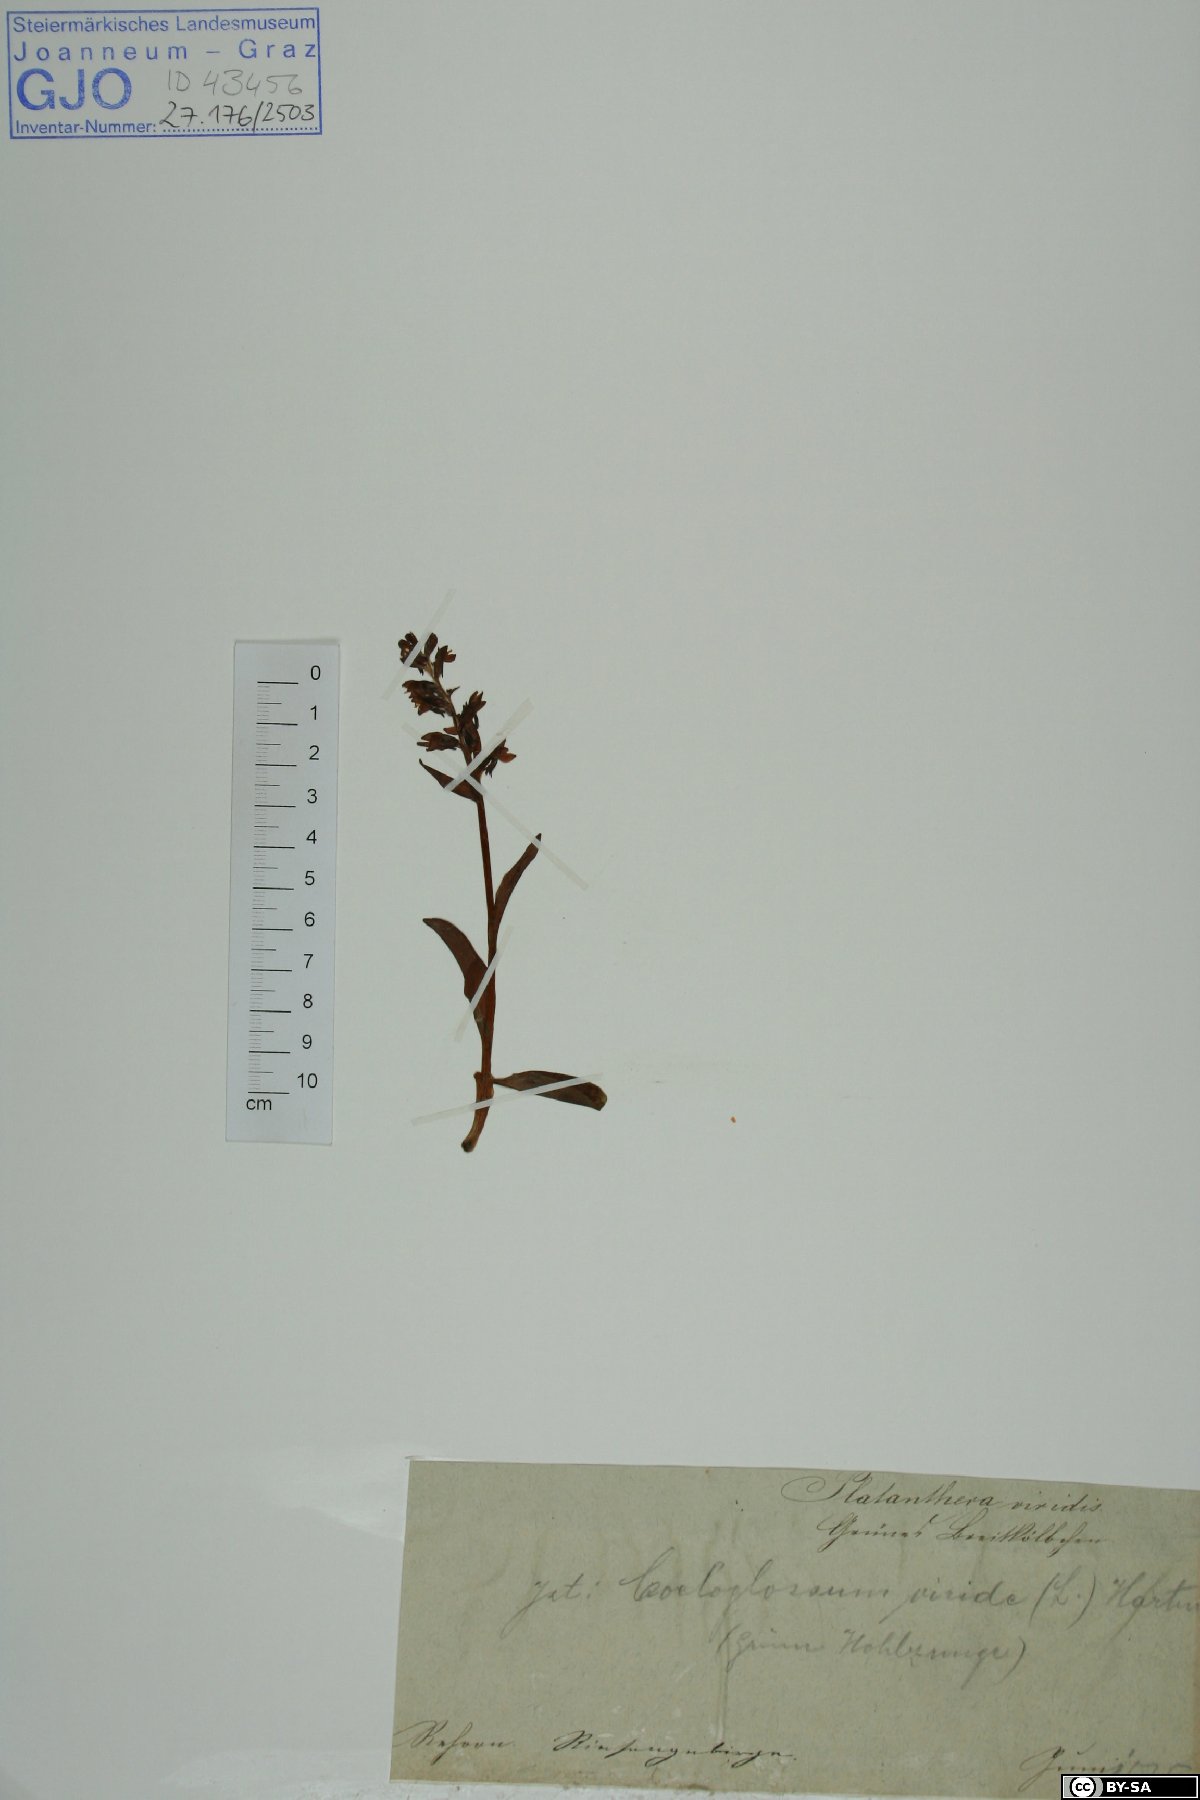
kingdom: Plantae
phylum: Tracheophyta
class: Liliopsida
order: Asparagales
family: Orchidaceae
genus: Dactylorhiza
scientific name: Dactylorhiza viridis
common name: Longbract frog orchid
